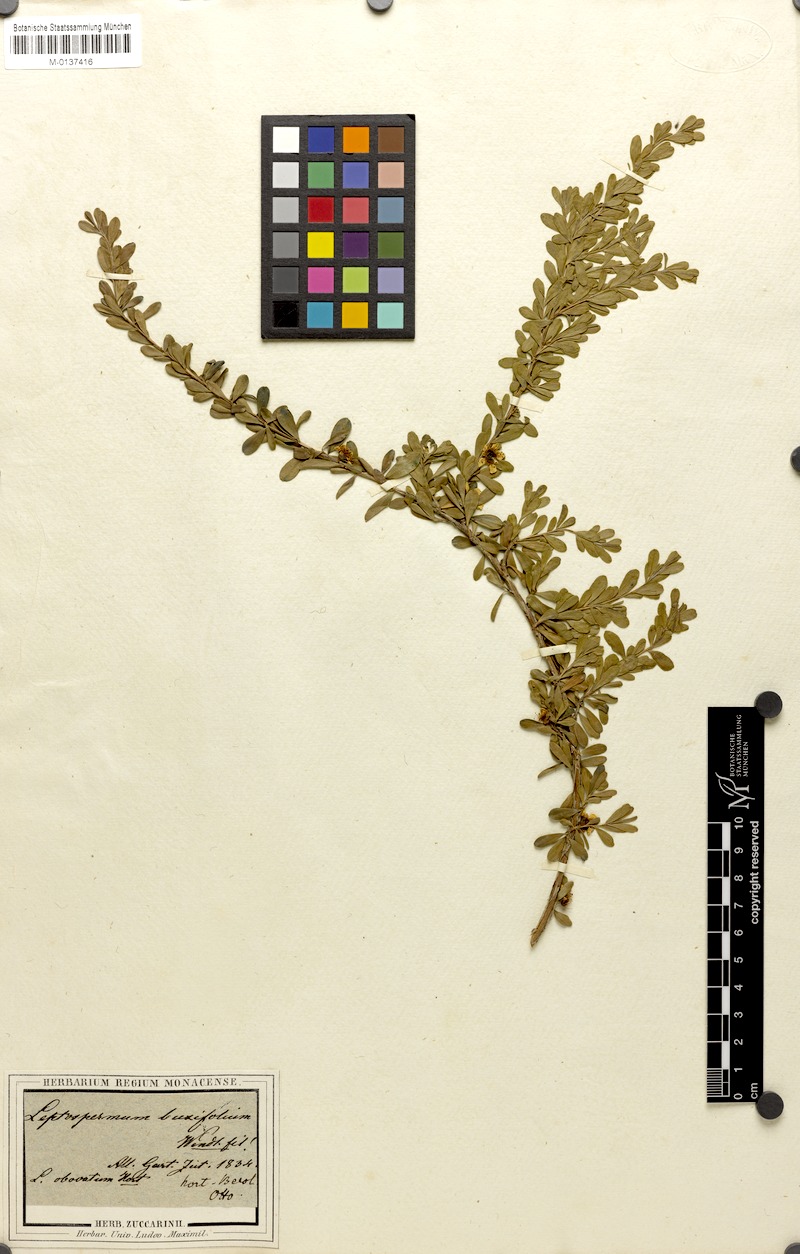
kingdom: Plantae
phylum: Tracheophyta
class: Magnoliopsida
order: Myrtales
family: Myrtaceae
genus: Leptospermum
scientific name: Leptospermum polygalifolium
